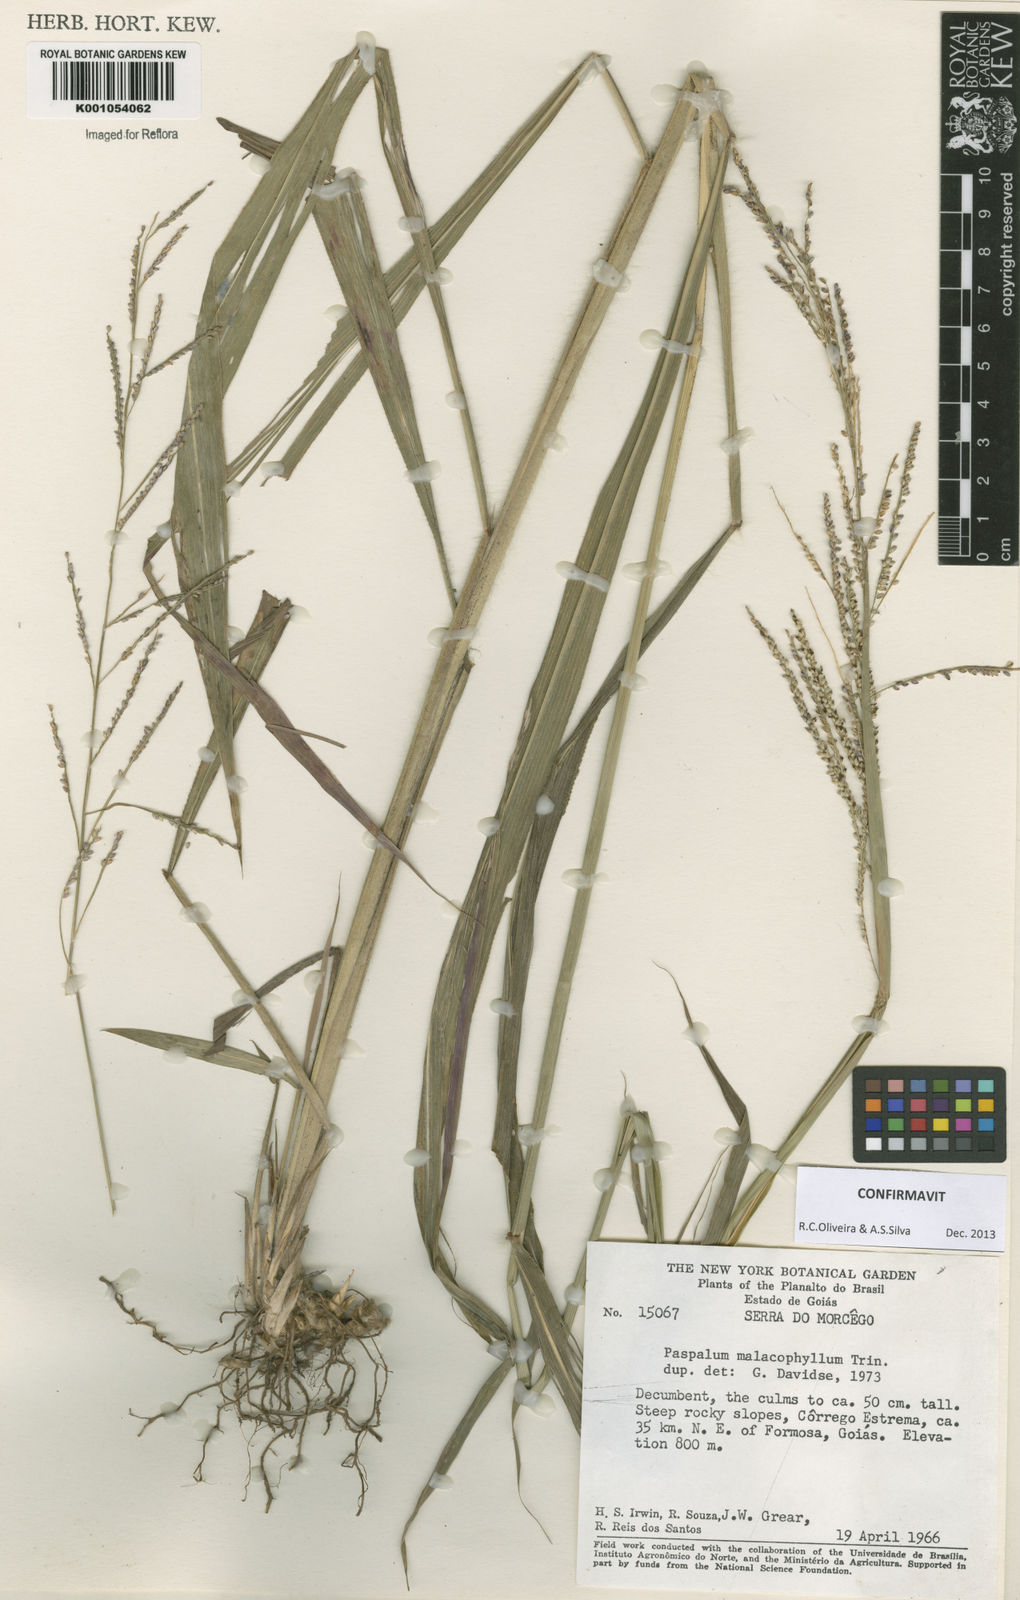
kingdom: Plantae
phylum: Tracheophyta
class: Liliopsida
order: Poales
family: Poaceae
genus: Paspalum
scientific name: Paspalum malacophyllum
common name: Ribbed paspalum
